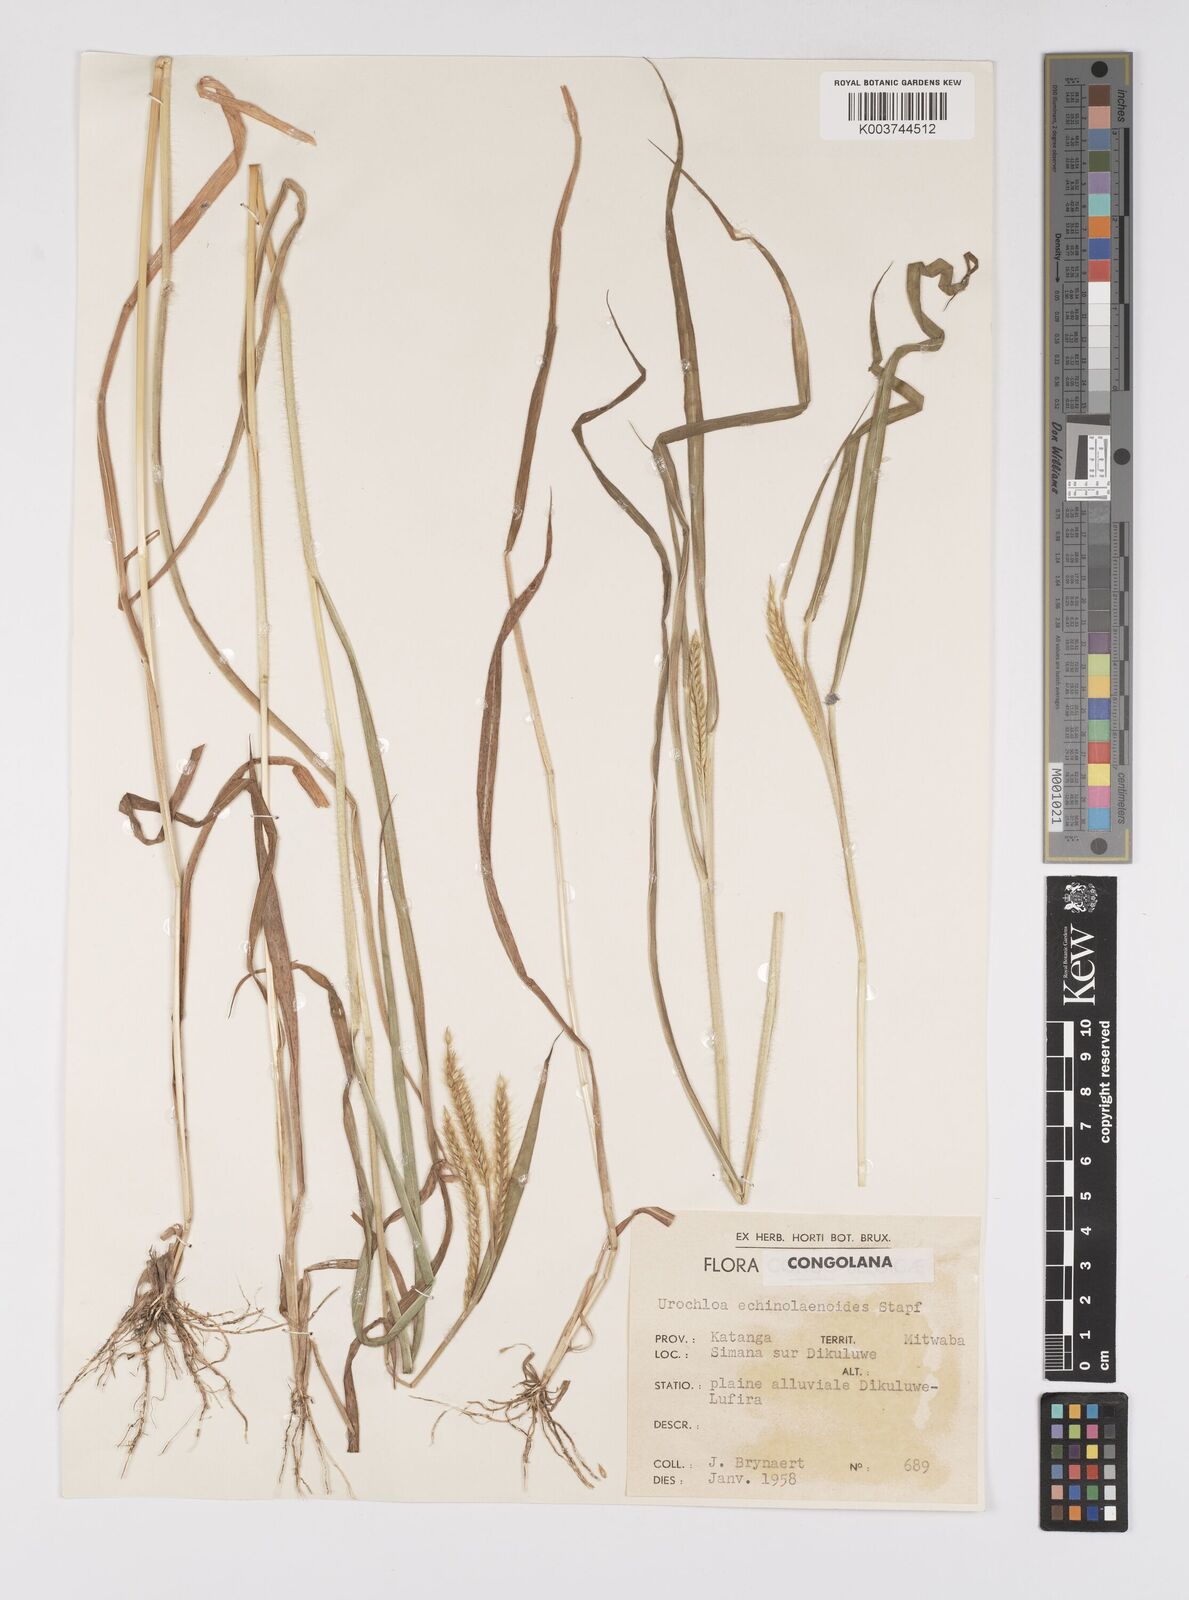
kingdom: Plantae
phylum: Tracheophyta
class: Liliopsida
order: Poales
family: Poaceae
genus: Urochloa
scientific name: Urochloa echinolaenoides
